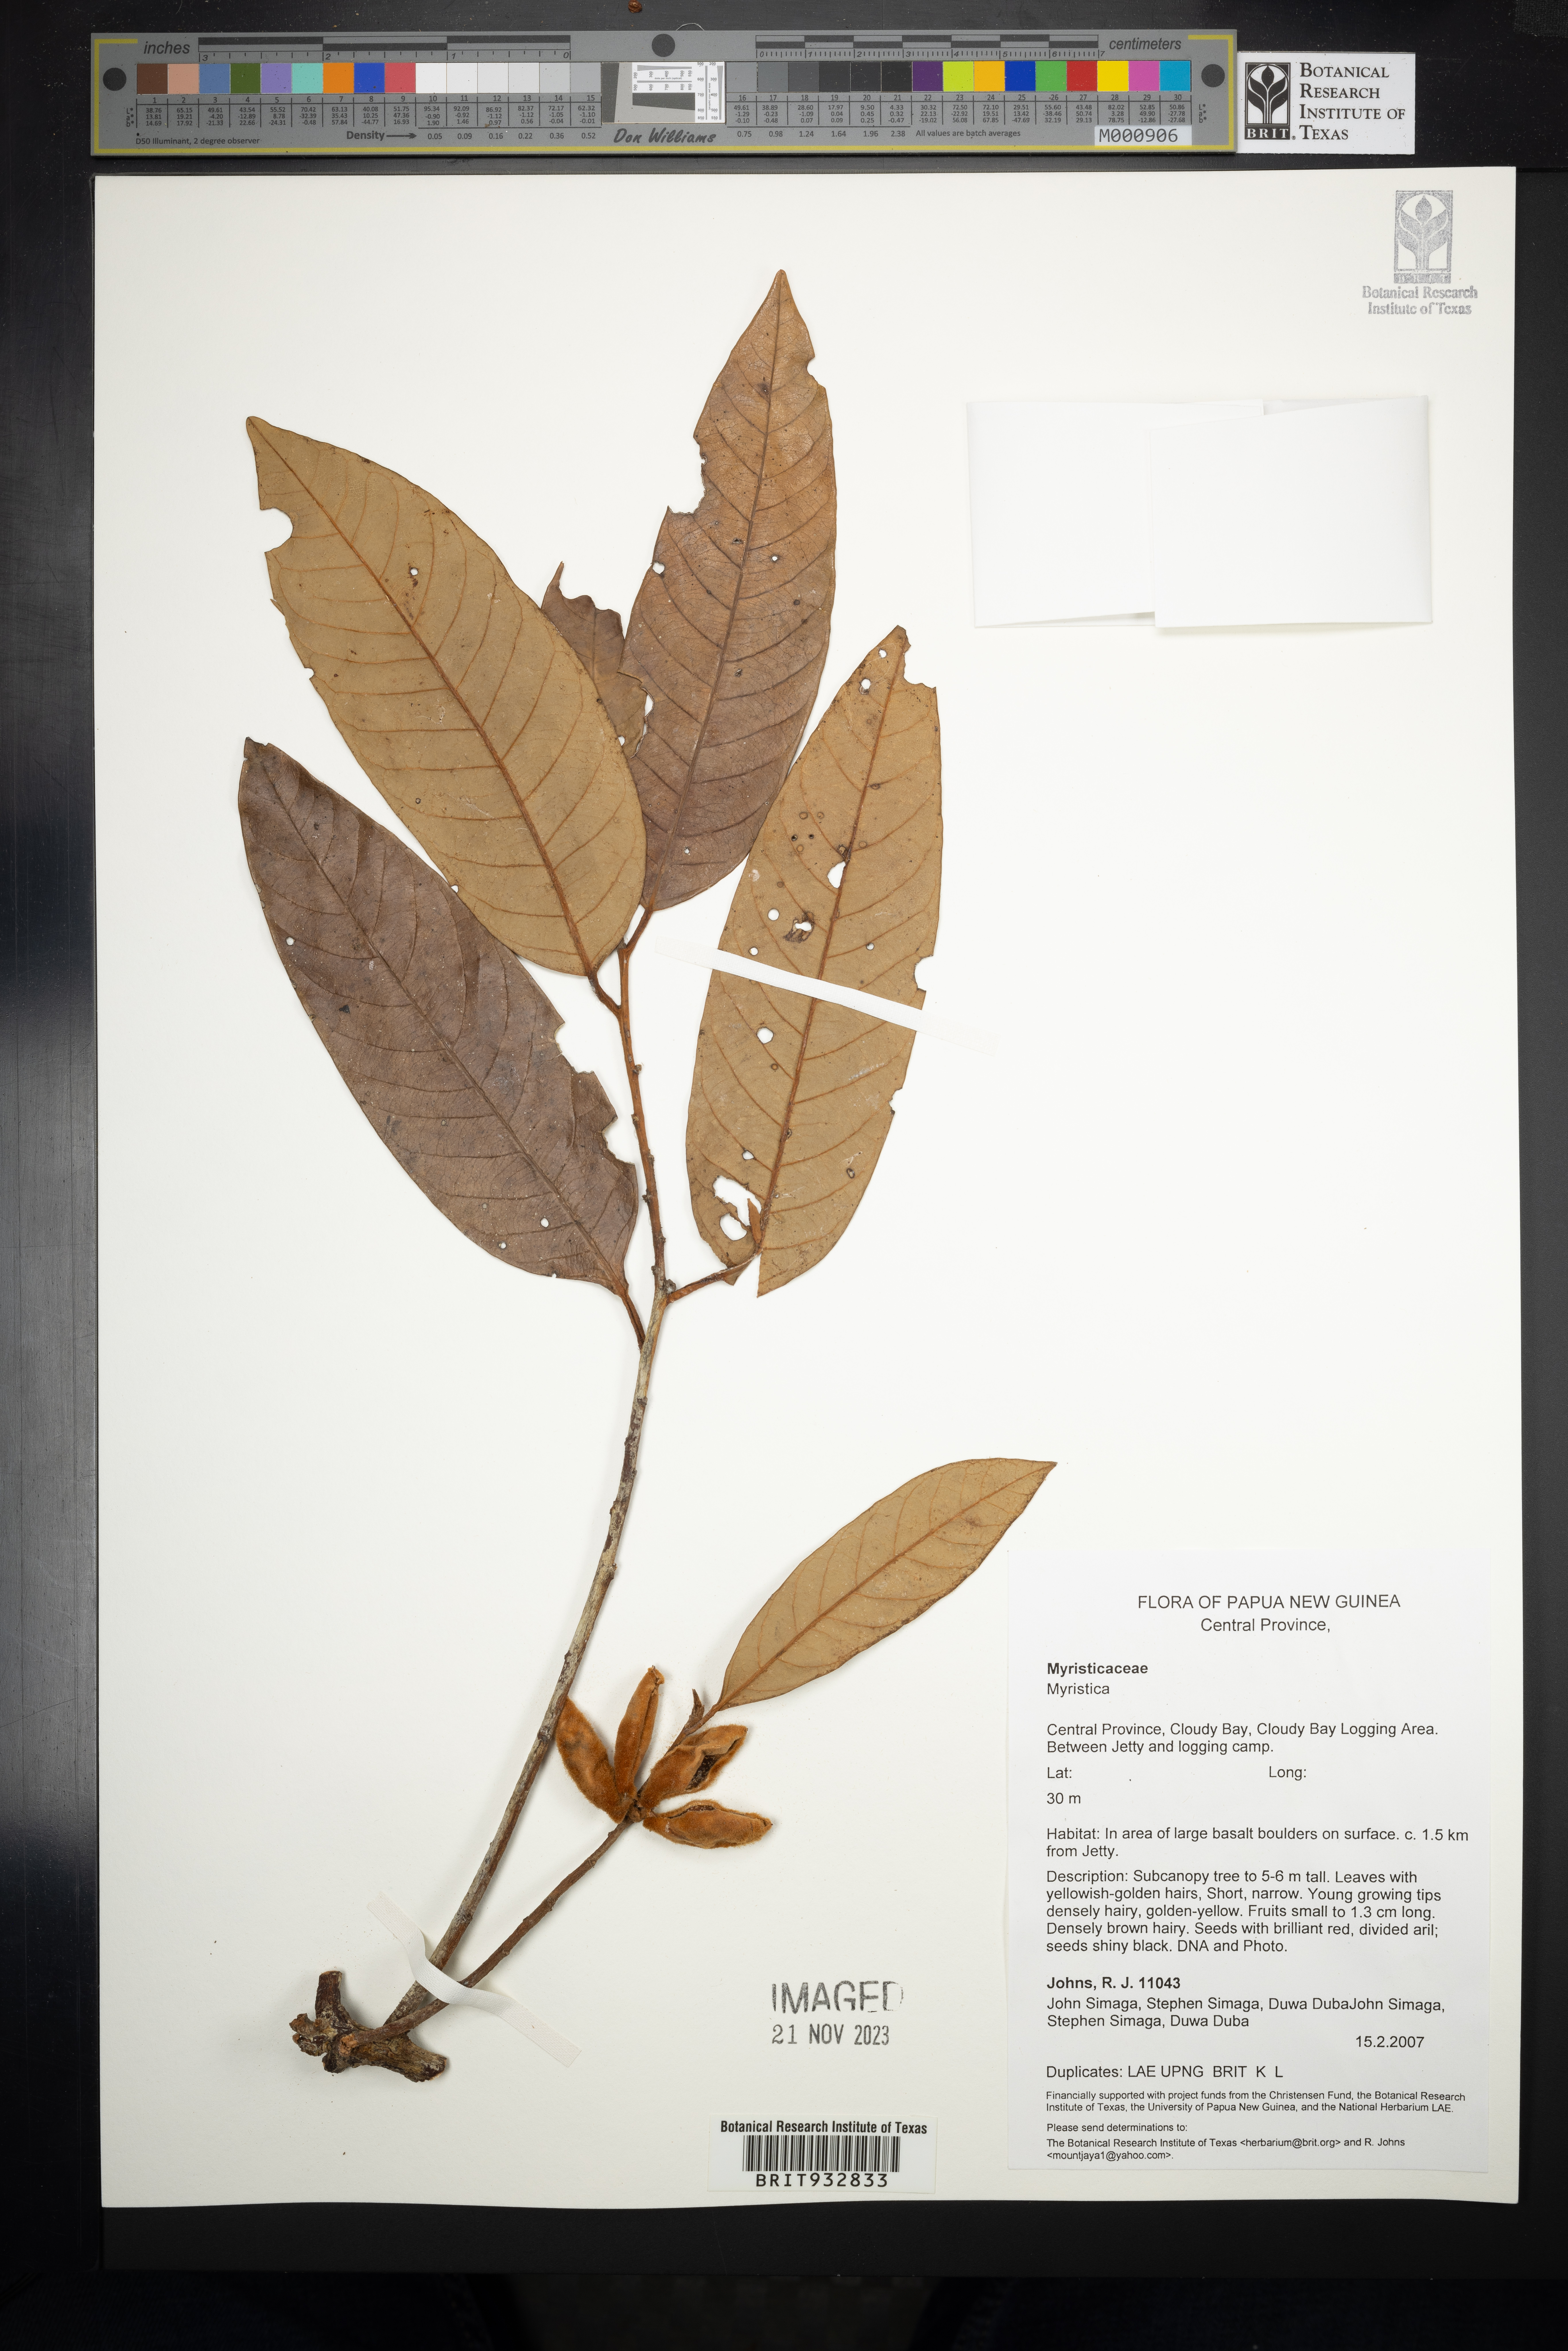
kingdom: Plantae
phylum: Tracheophyta
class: Magnoliopsida
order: Magnoliales
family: Myristicaceae
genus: Myristica
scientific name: Myristica
